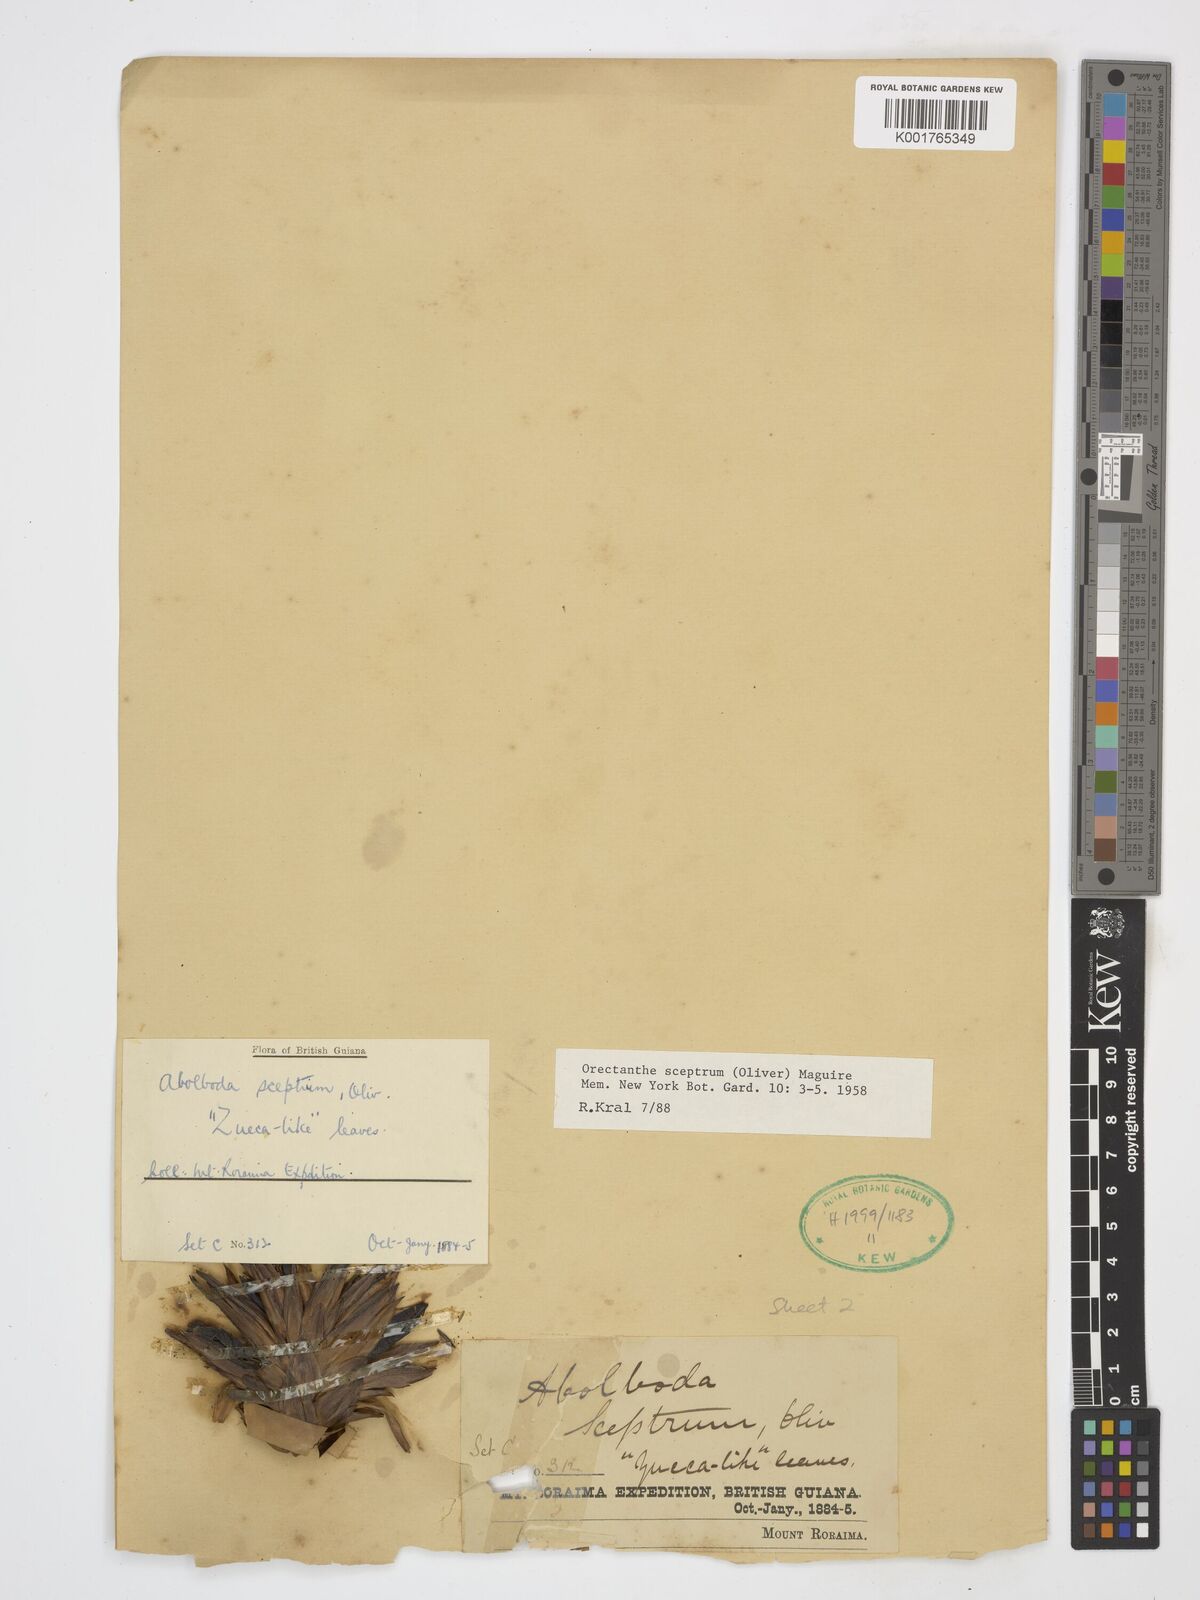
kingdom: Plantae
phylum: Tracheophyta
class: Liliopsida
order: Poales
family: Xyridaceae
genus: Orectanthe
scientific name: Orectanthe sceptrum
